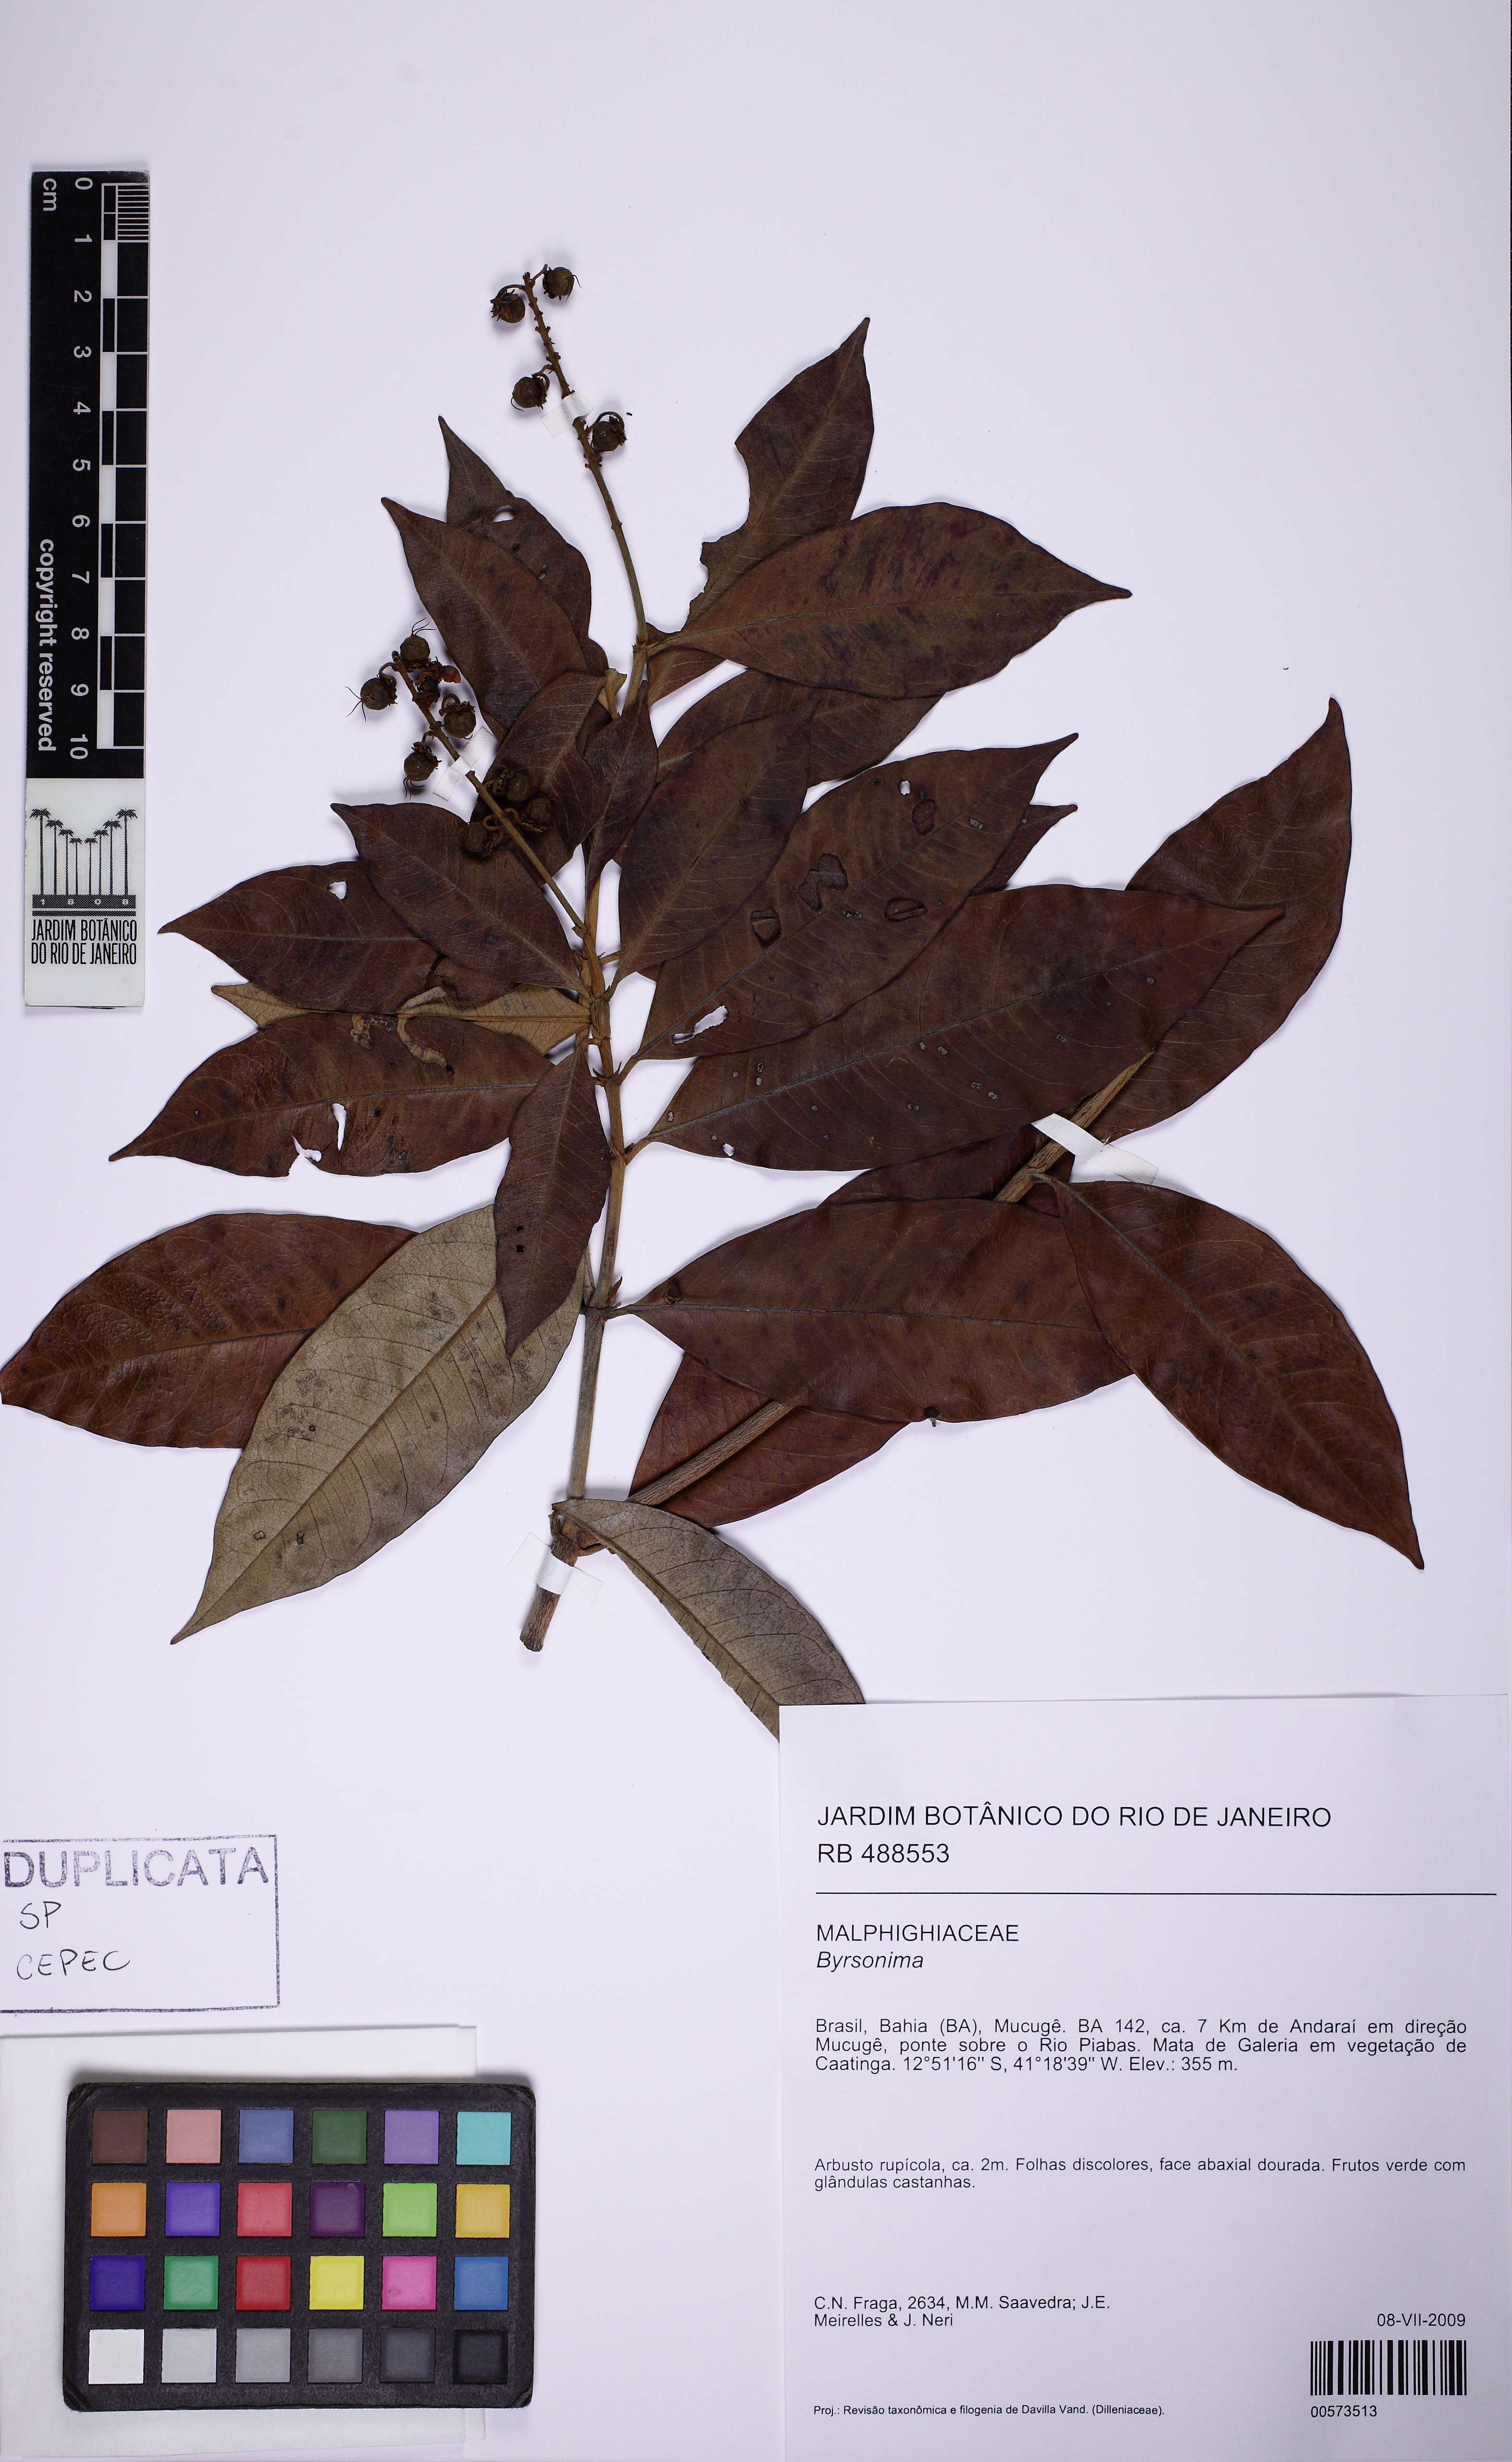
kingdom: Plantae
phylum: Tracheophyta
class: Magnoliopsida
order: Malpighiales
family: Malpighiaceae
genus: Byrsonima
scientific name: Byrsonima sericea
